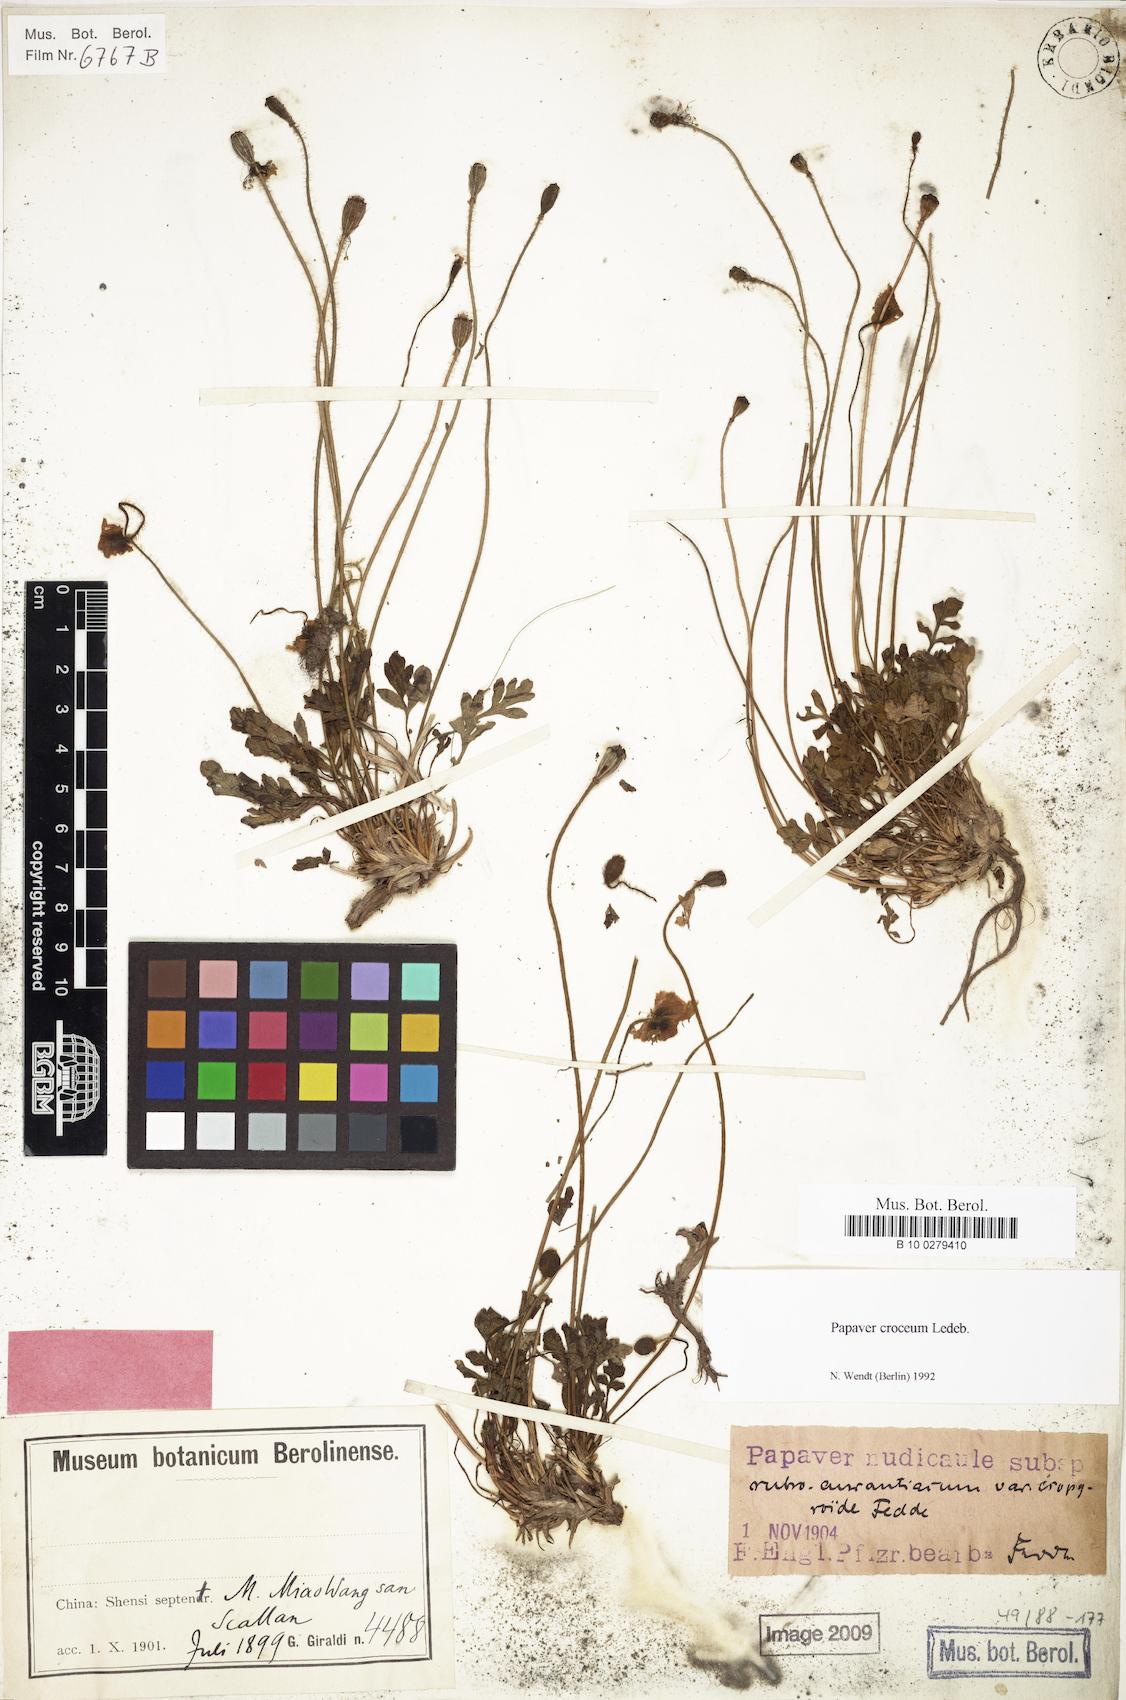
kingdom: Plantae
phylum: Tracheophyta
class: Magnoliopsida
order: Ranunculales
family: Papaveraceae
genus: Papaver
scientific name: Papaver croceum
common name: Siberian poppy
